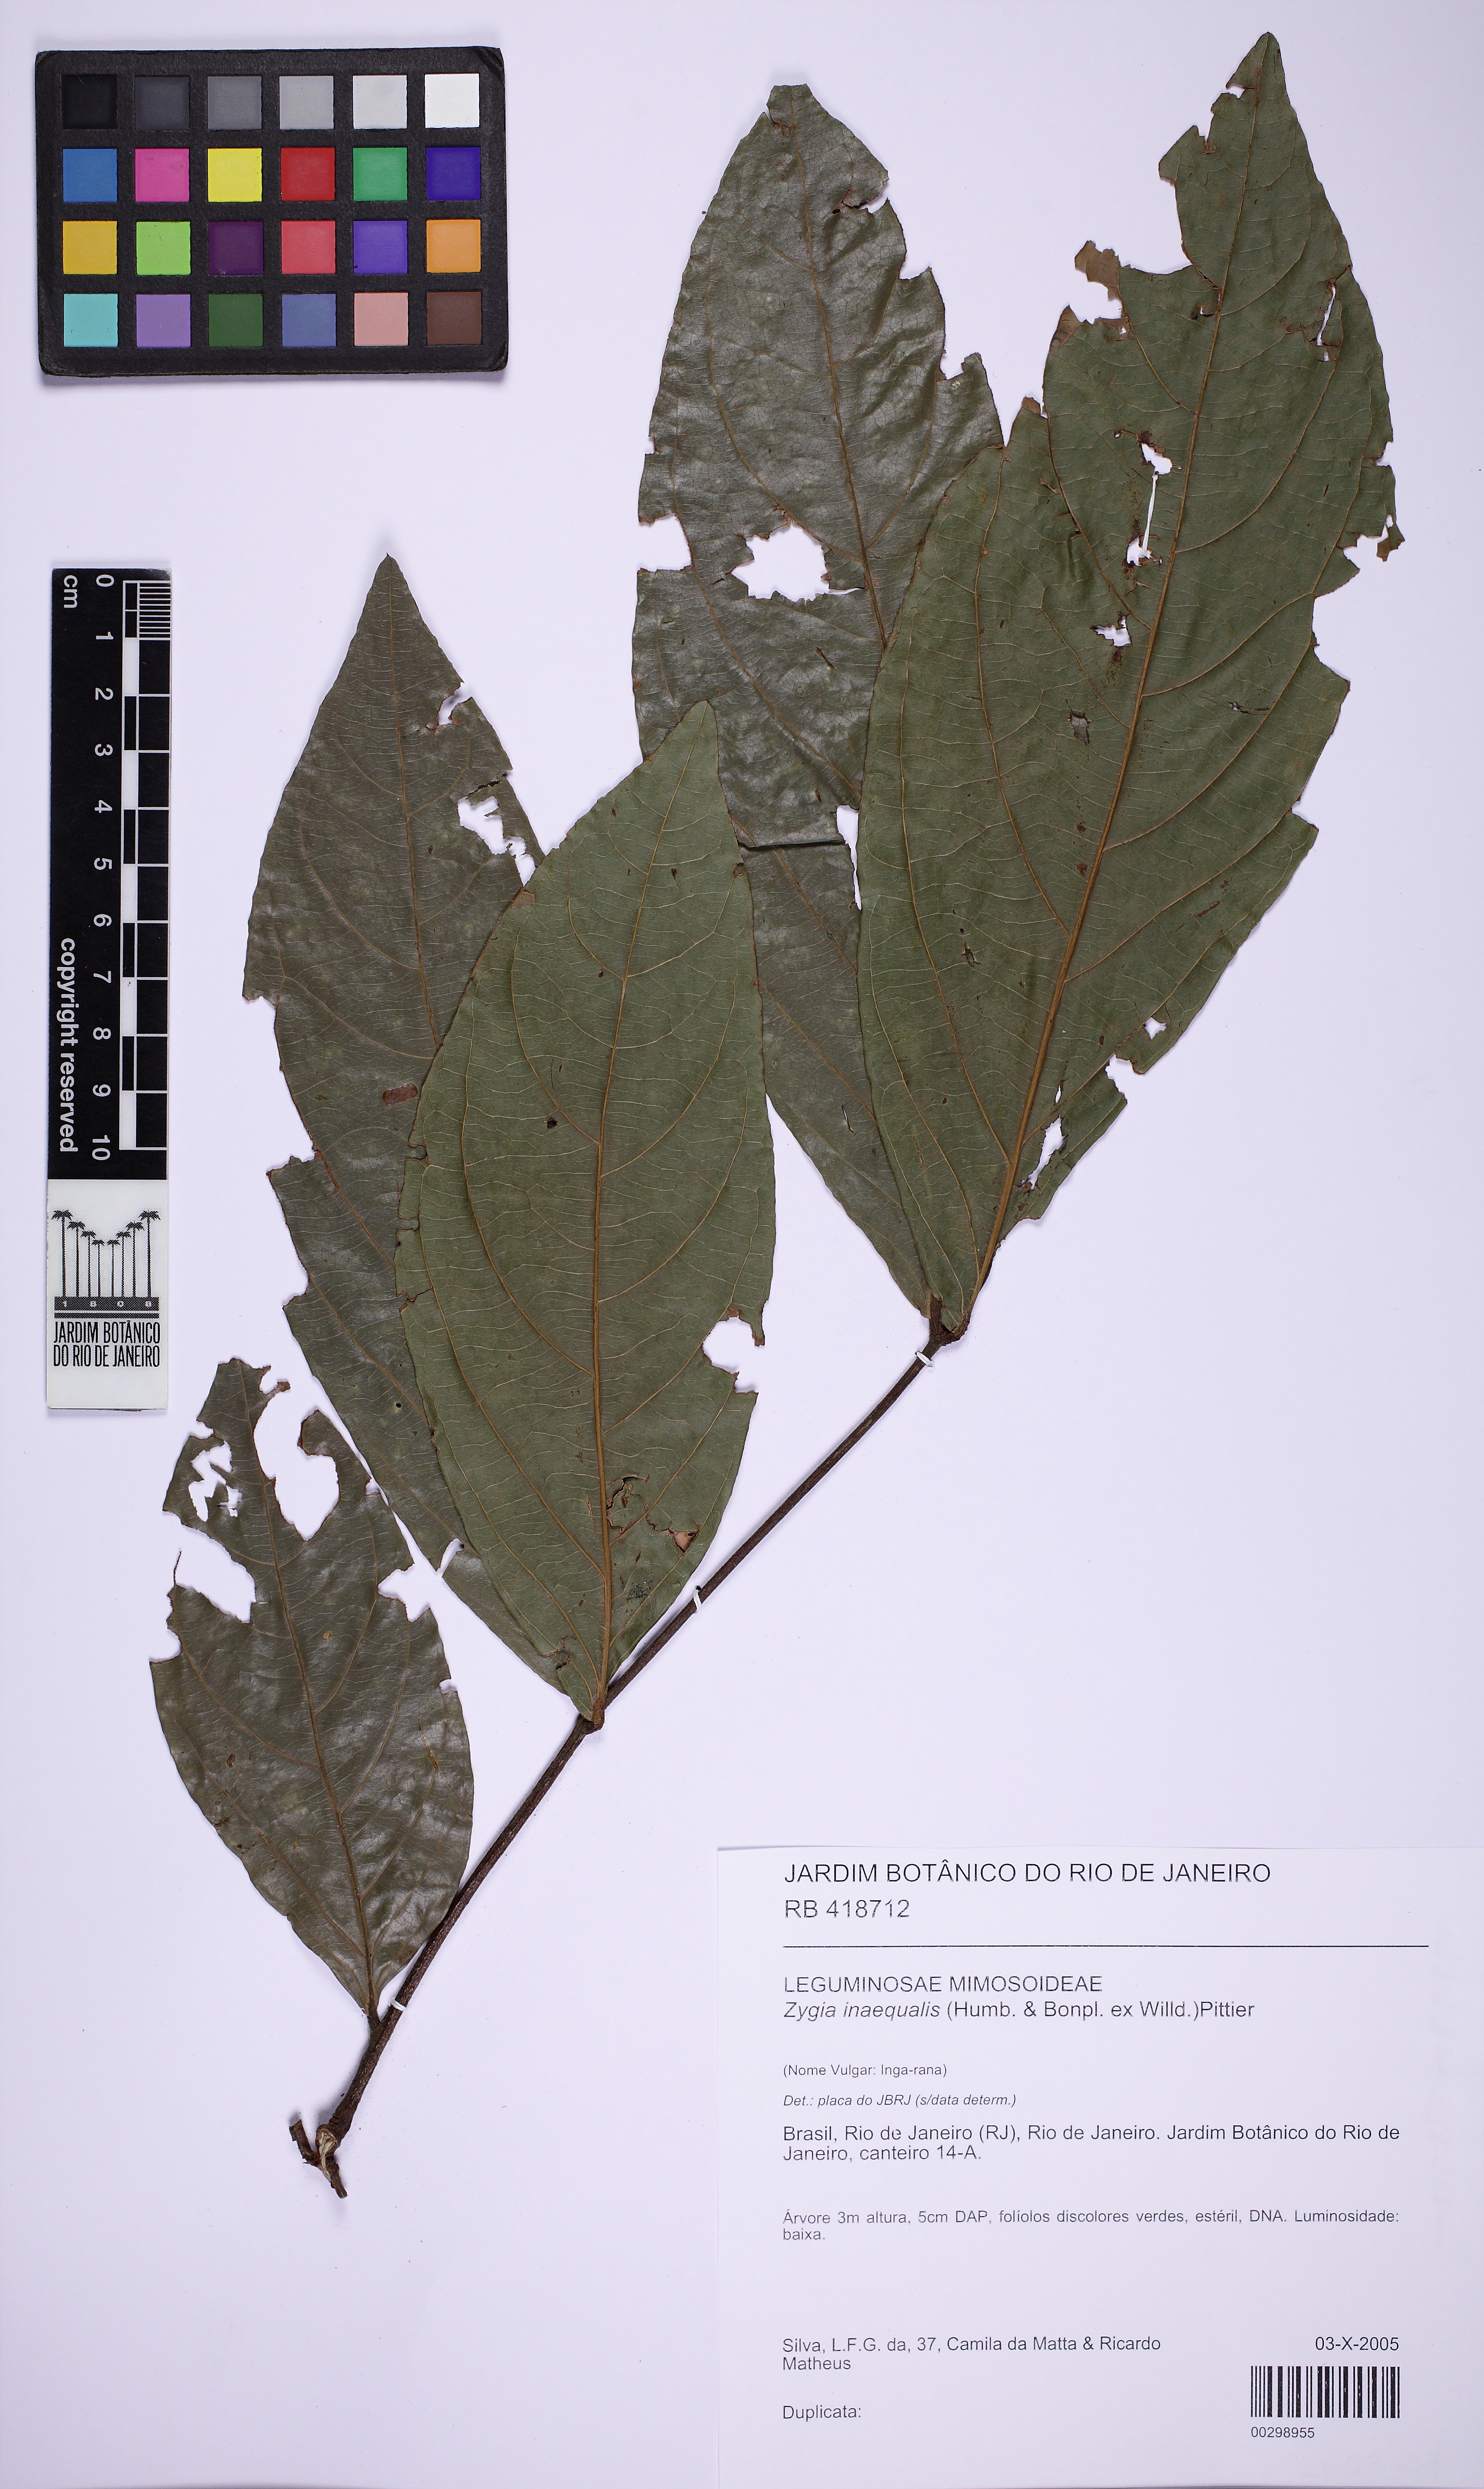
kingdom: Plantae
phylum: Tracheophyta
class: Magnoliopsida
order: Fabales
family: Fabaceae
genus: Zygia
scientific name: Zygia inaequalis
